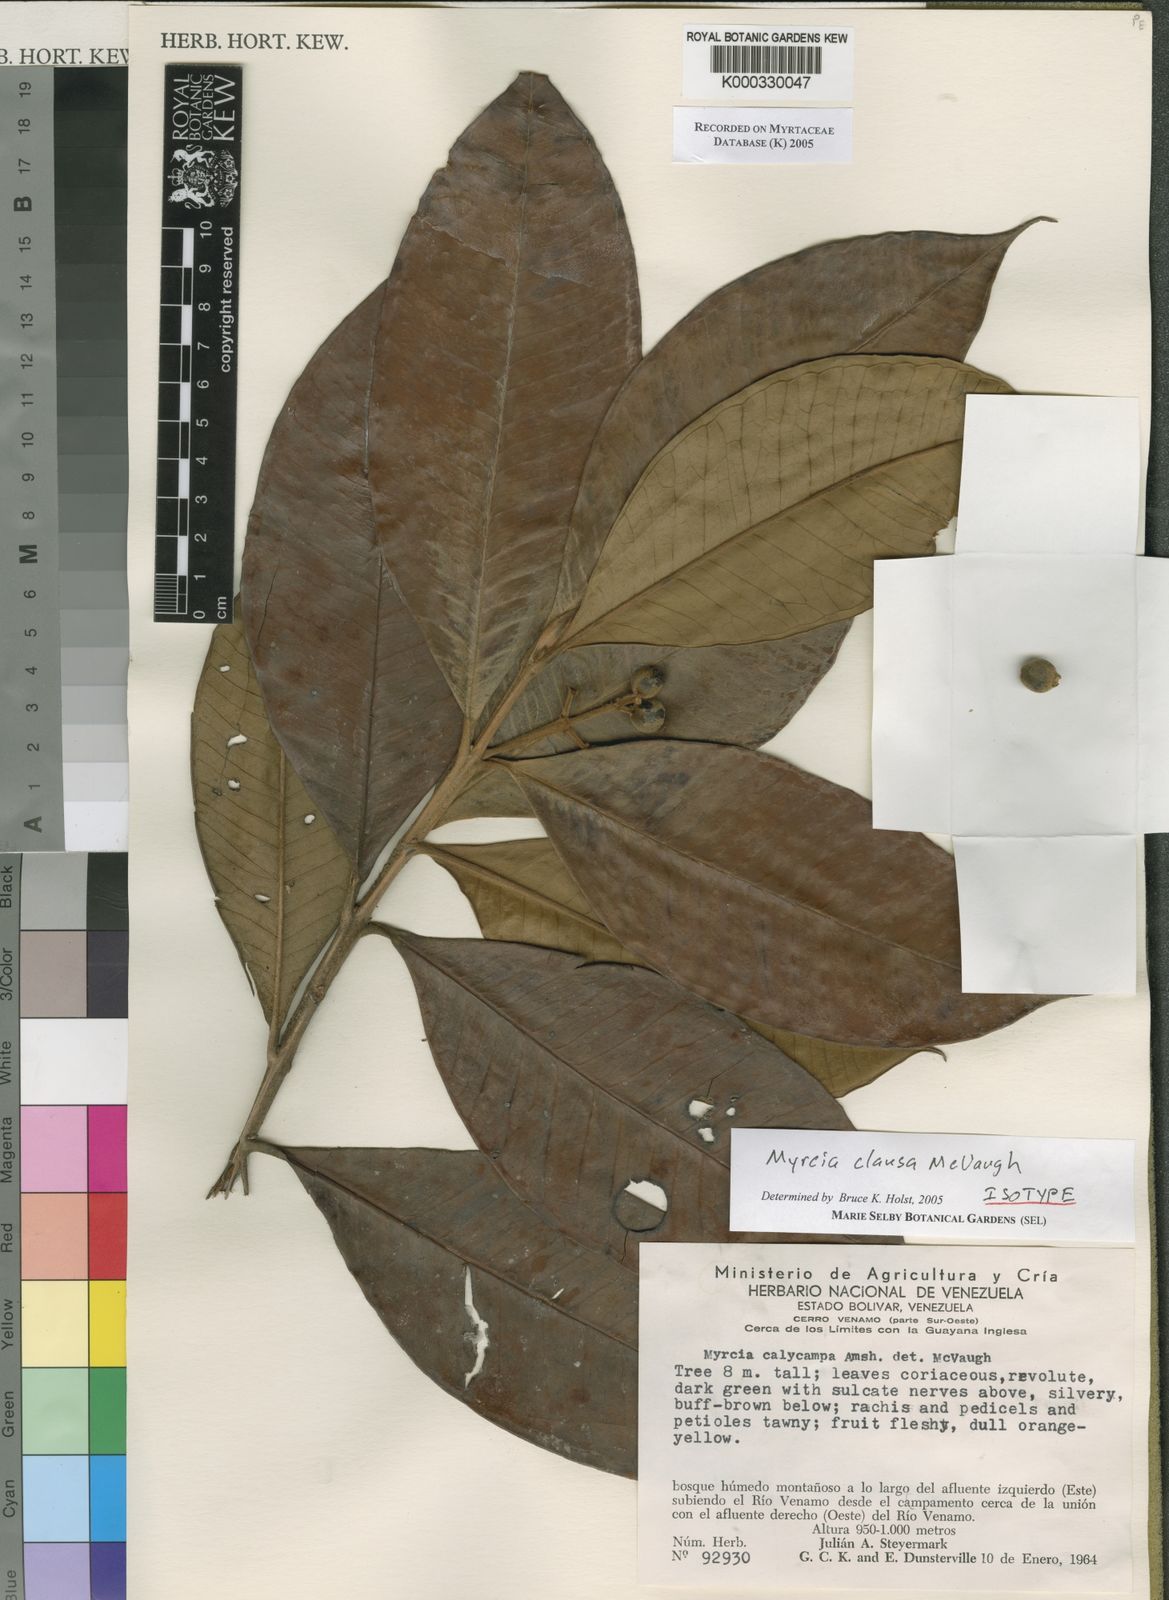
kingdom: Plantae
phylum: Tracheophyta
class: Magnoliopsida
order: Myrtales
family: Myrtaceae
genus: Myrcia
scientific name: Myrcia clausa
